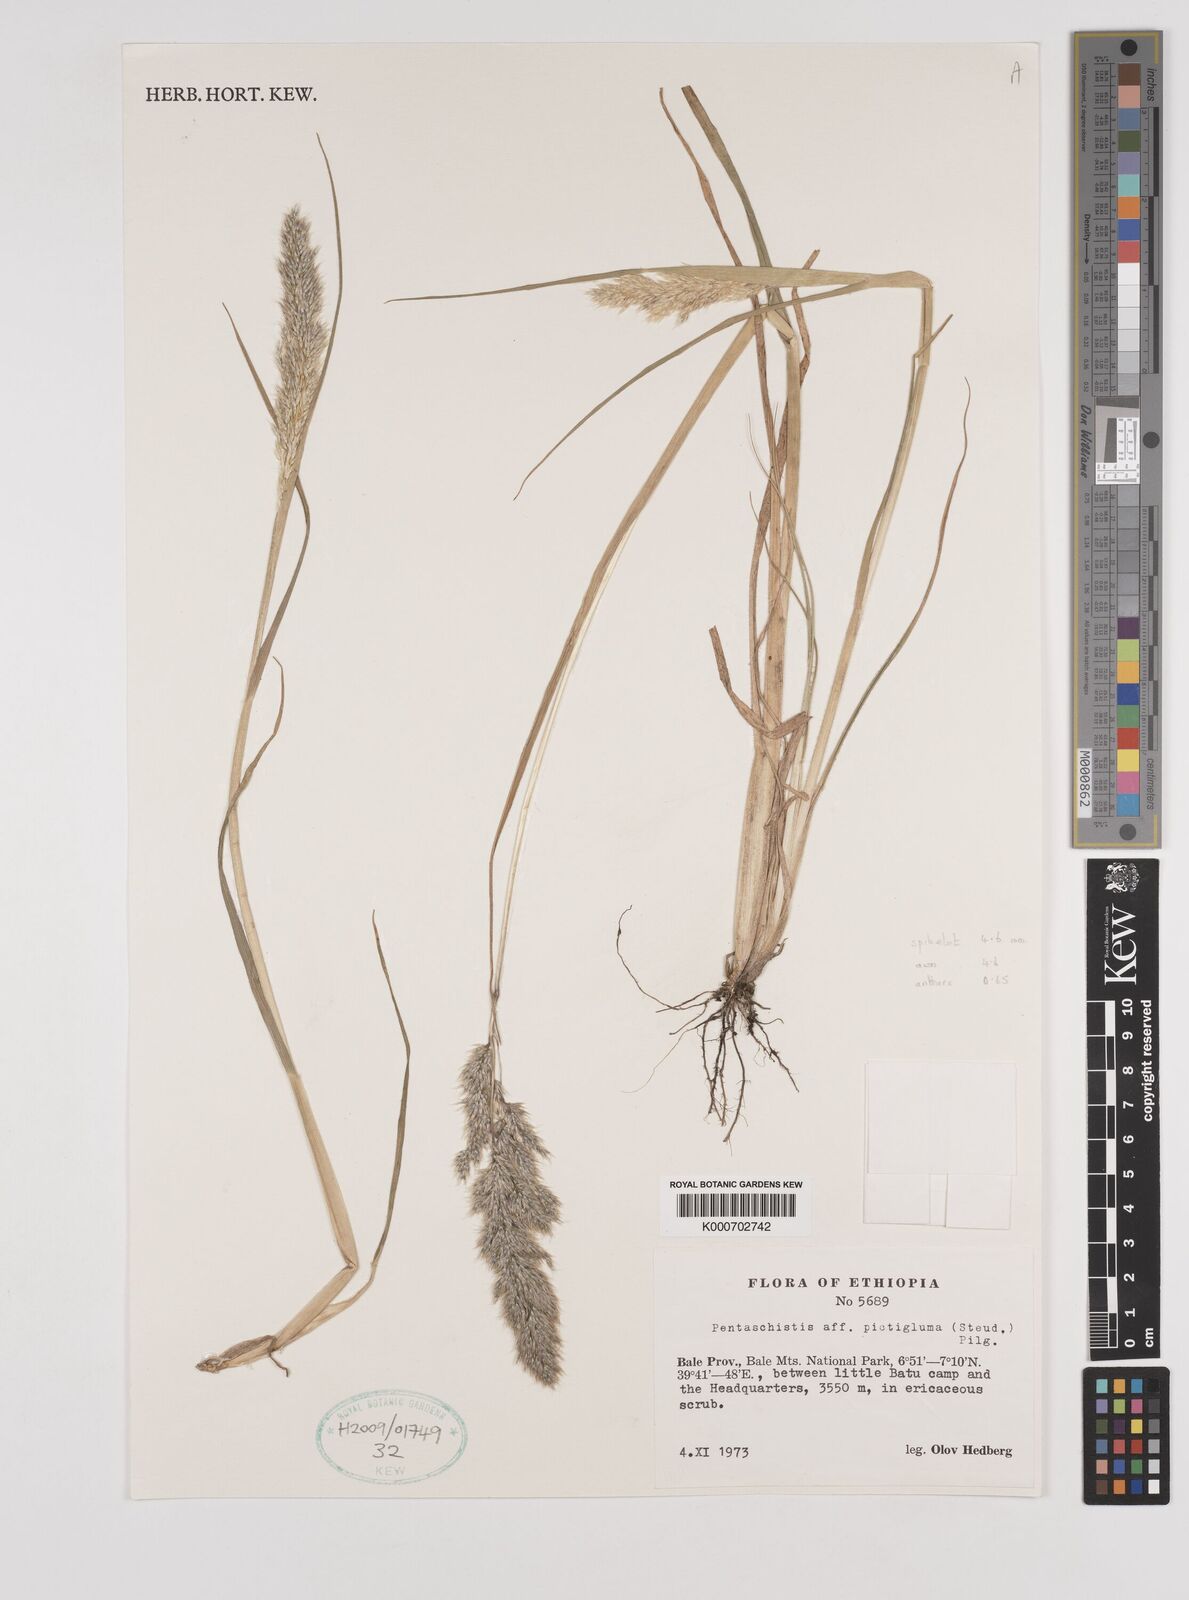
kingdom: Plantae
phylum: Tracheophyta
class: Liliopsida
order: Poales
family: Poaceae
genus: Pentameris
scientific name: Pentameris pictigluma
